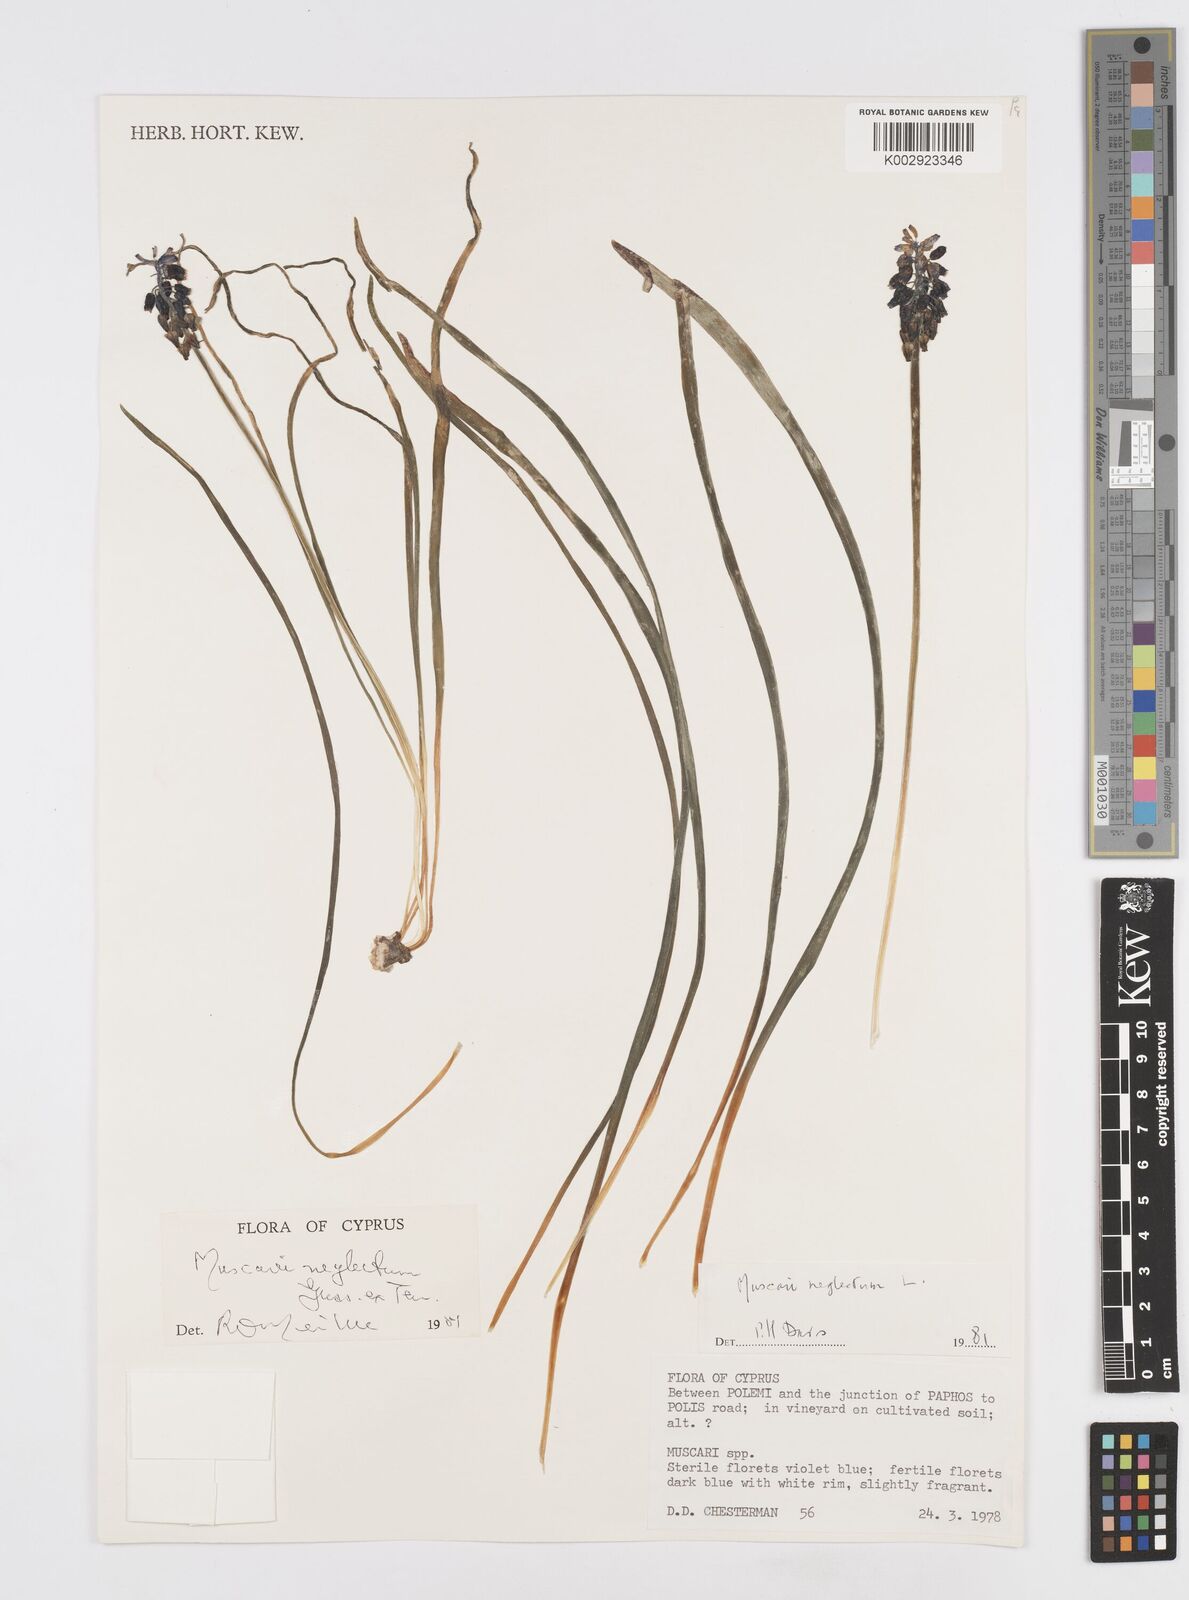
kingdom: Plantae
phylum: Tracheophyta
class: Liliopsida
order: Asparagales
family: Asparagaceae
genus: Muscari
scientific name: Muscari neglectum
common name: Grape-hyacinth
